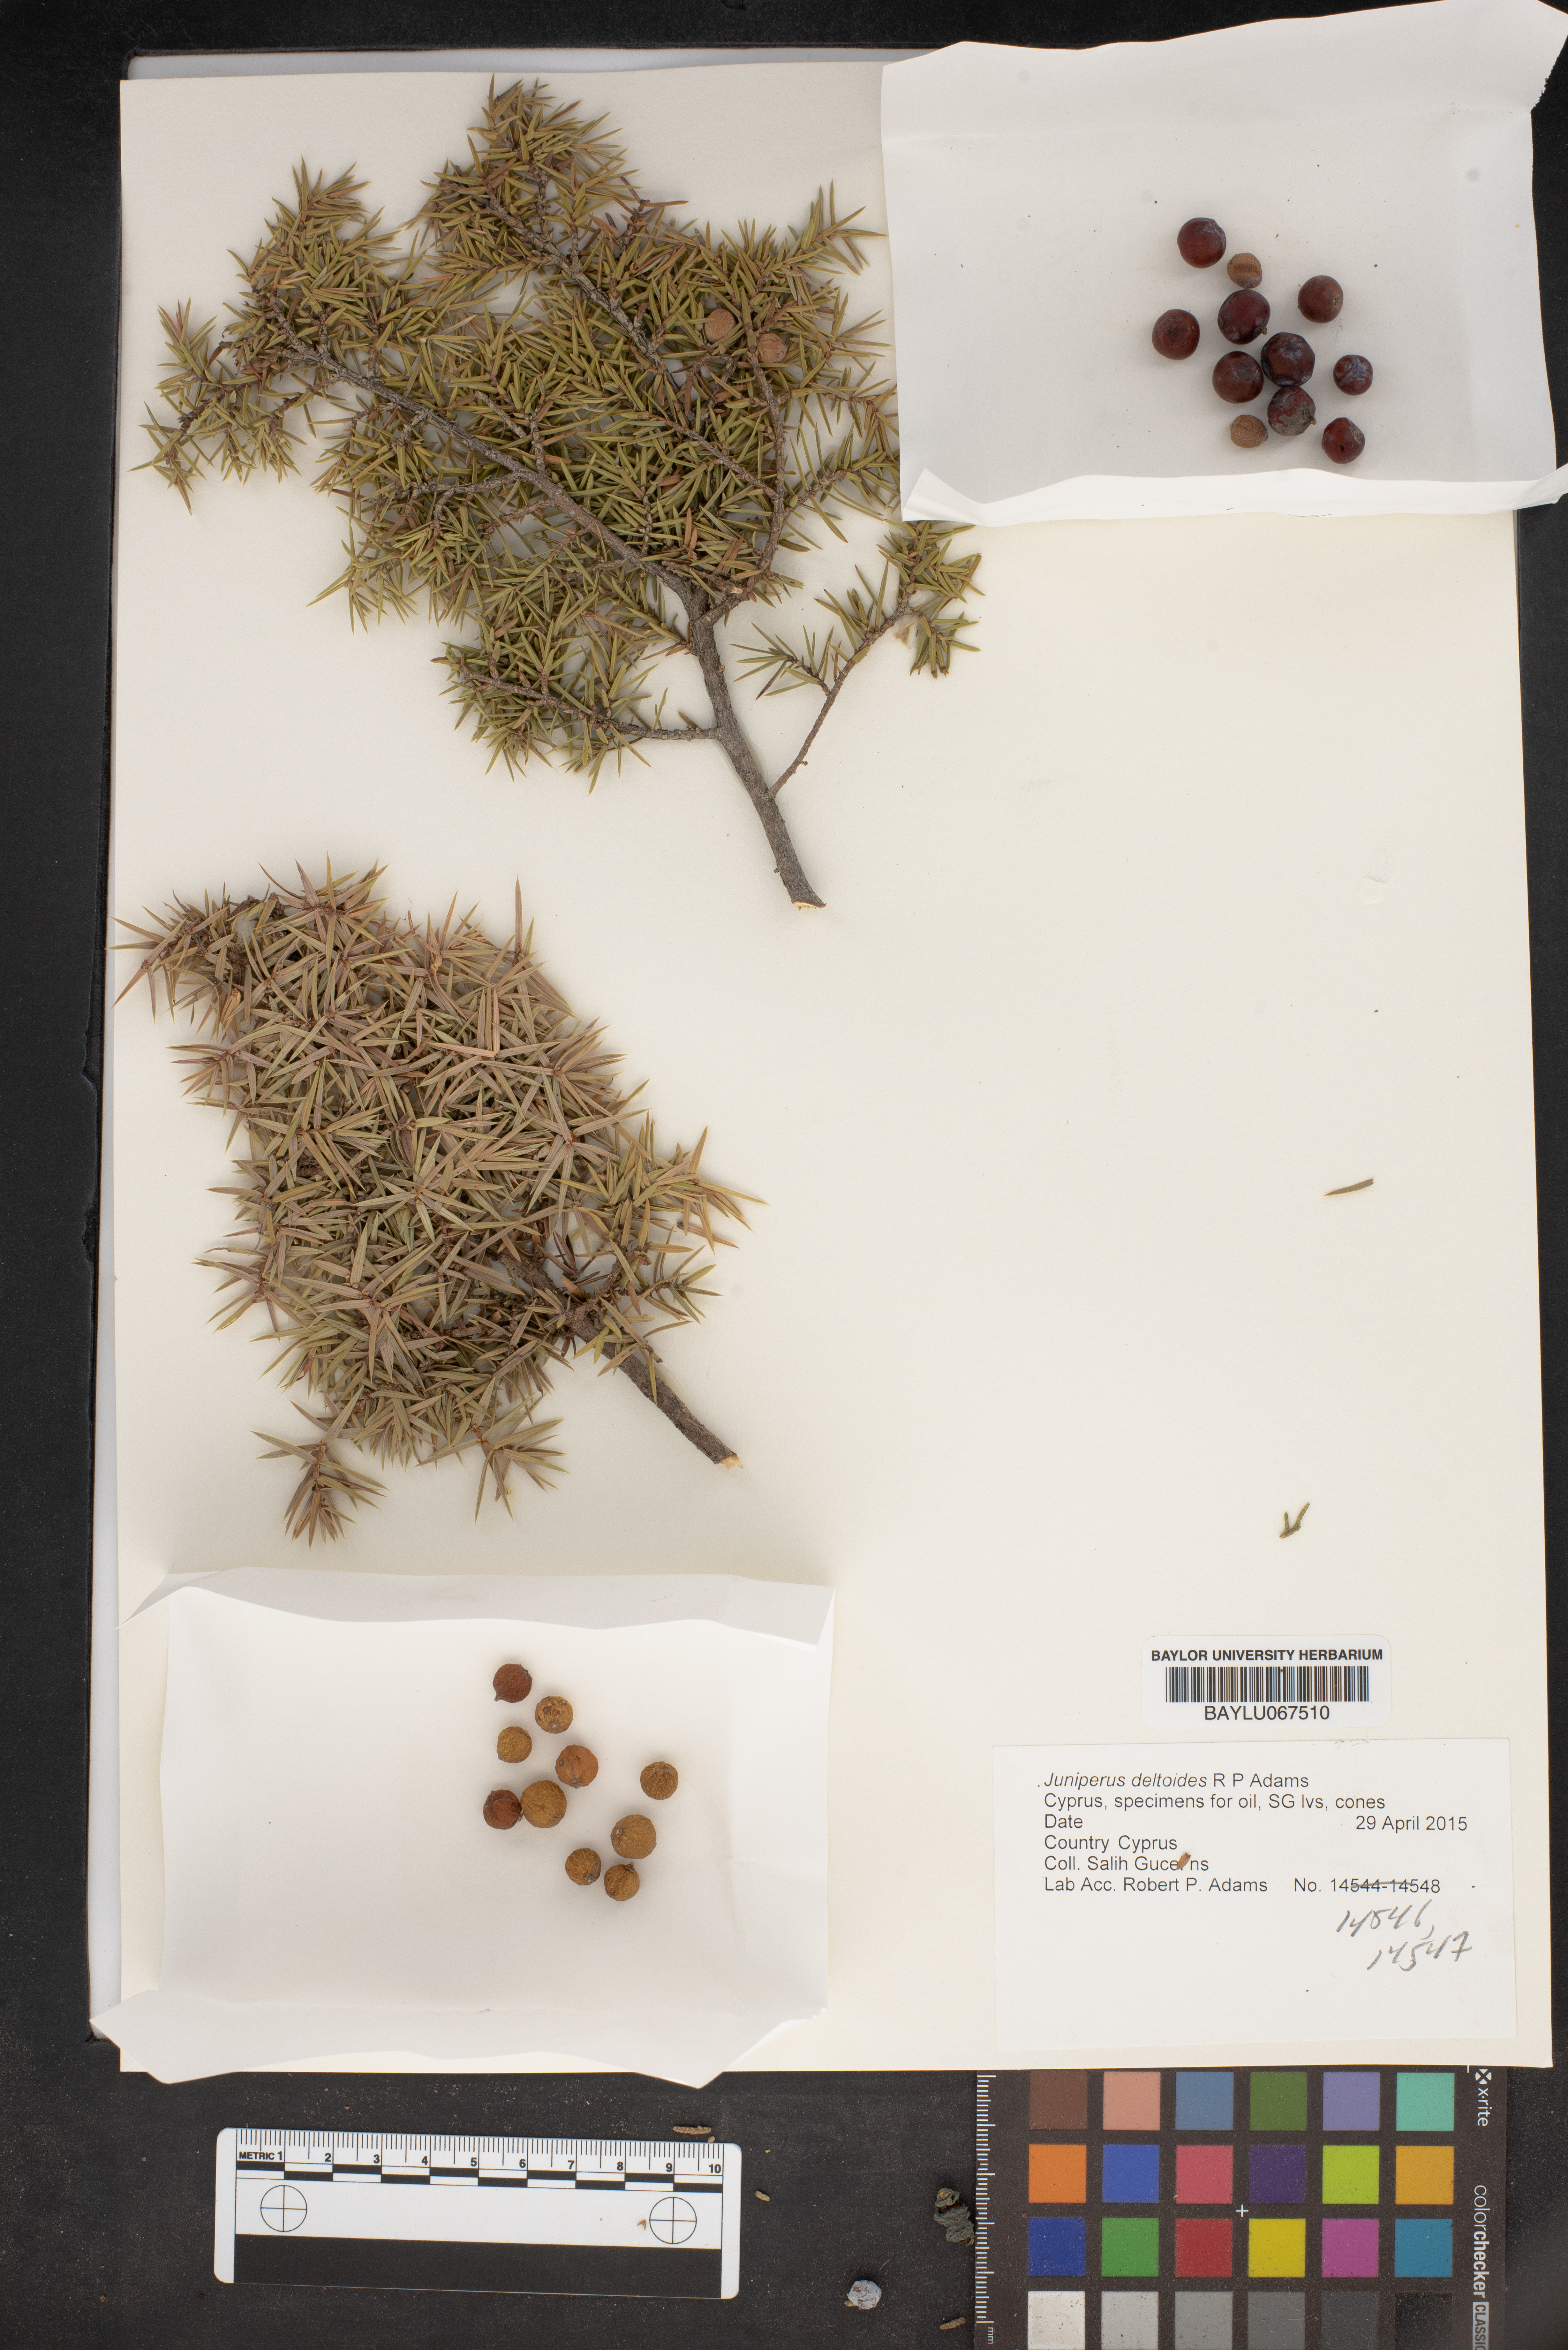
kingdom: Plantae
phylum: Tracheophyta
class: Pinopsida
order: Pinales
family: Cupressaceae
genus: Juniperus
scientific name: Juniperus oxycedrus
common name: Prickly juniper
